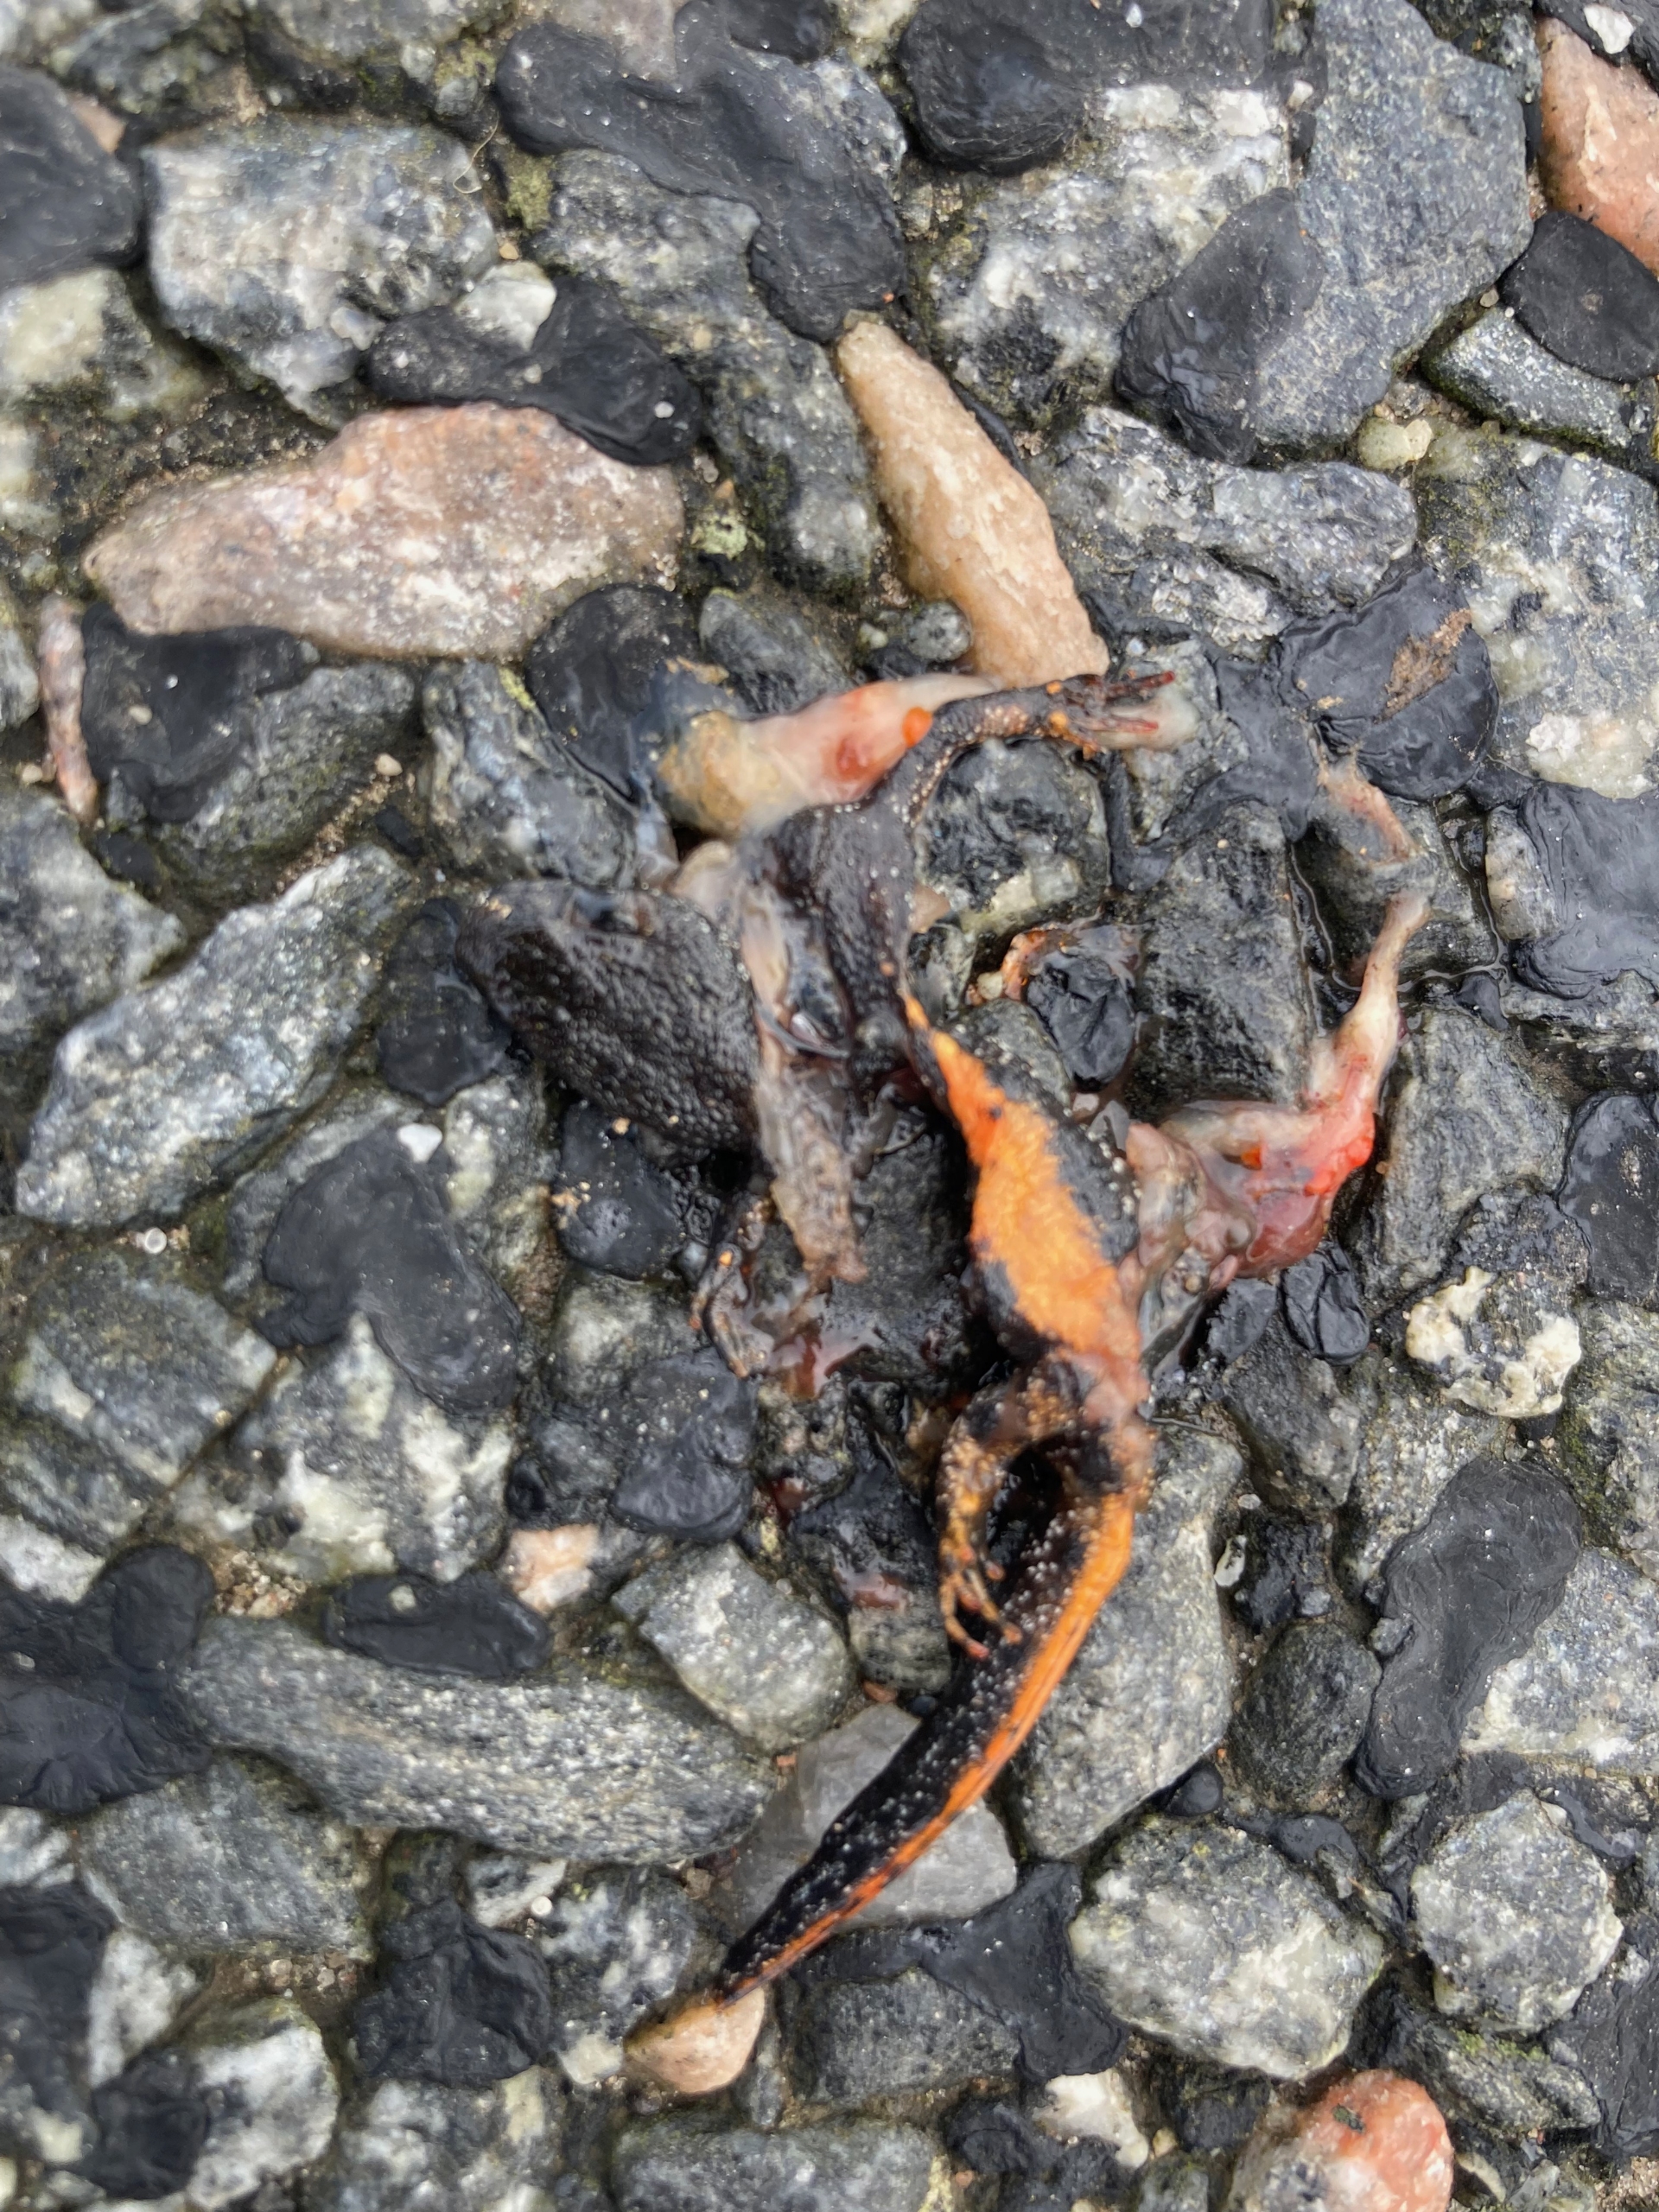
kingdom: Animalia
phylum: Chordata
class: Amphibia
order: Caudata
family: Salamandridae
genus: Triturus
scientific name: Triturus cristatus
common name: Stor vandsalamander
